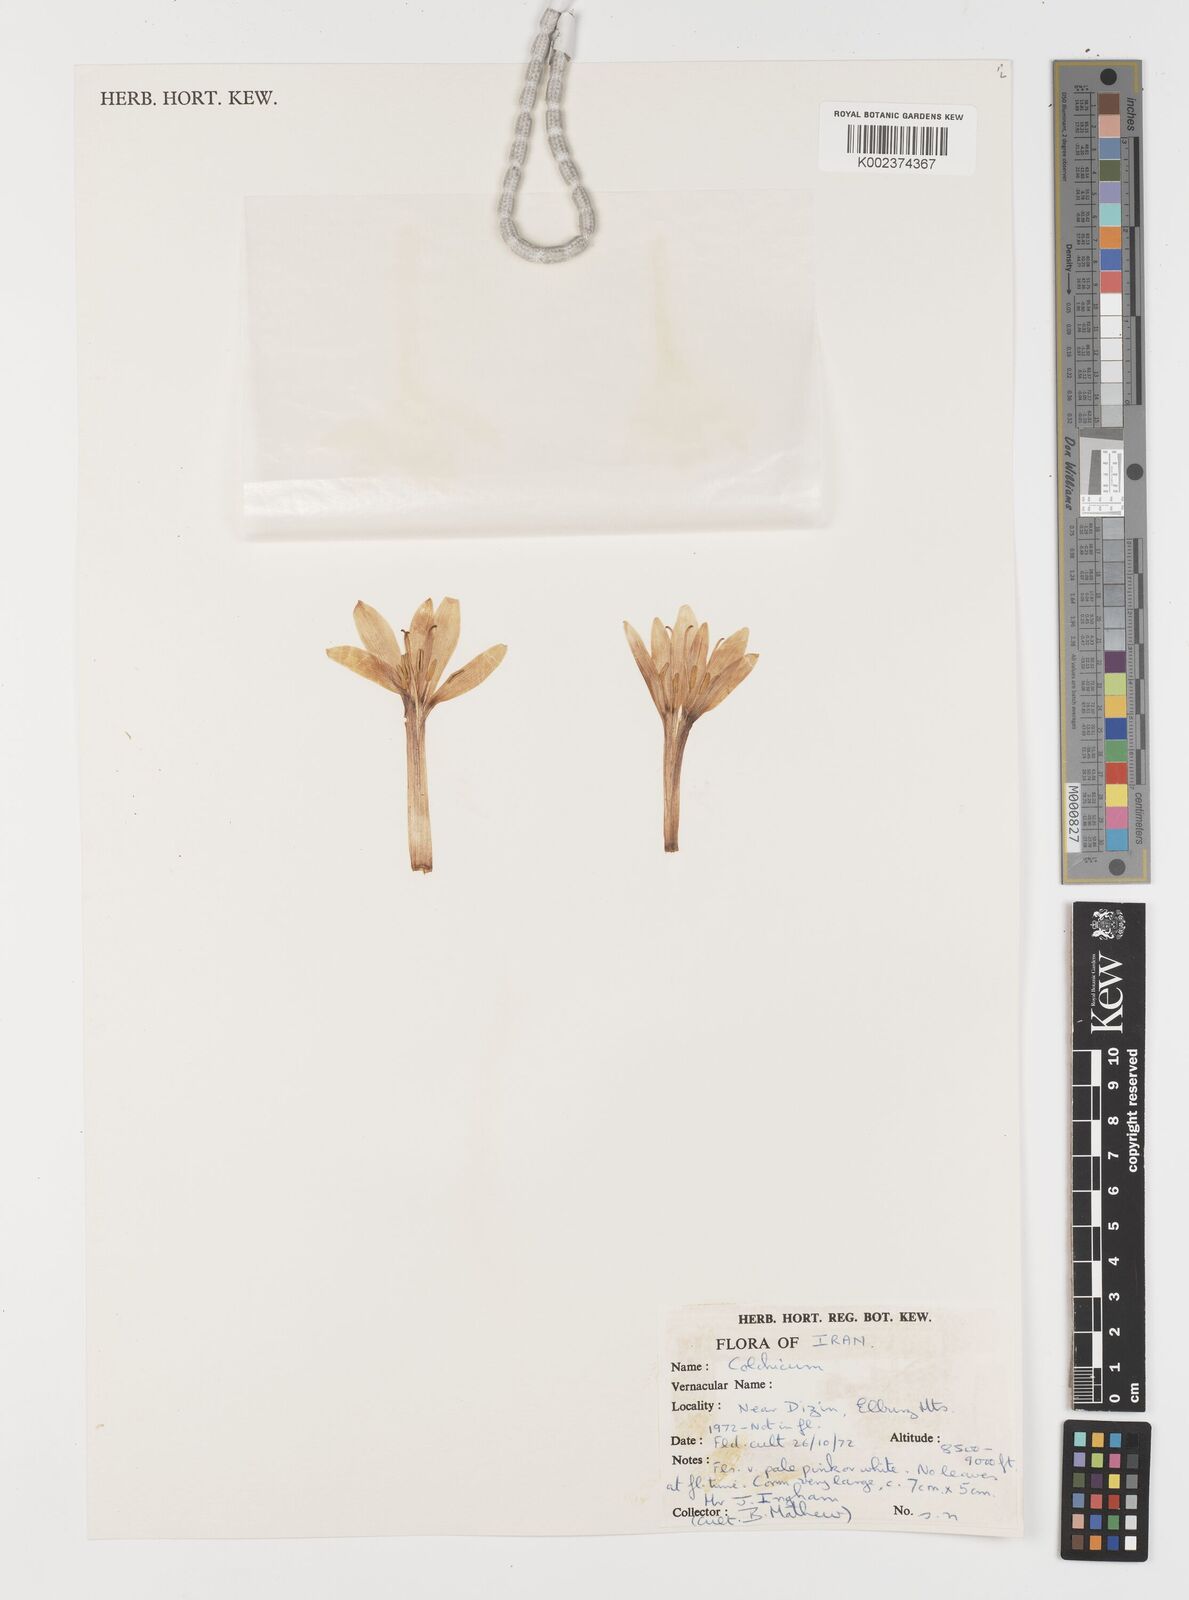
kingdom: Plantae
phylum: Tracheophyta
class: Liliopsida
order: Liliales
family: Colchicaceae
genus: Colchicum
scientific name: Colchicum
